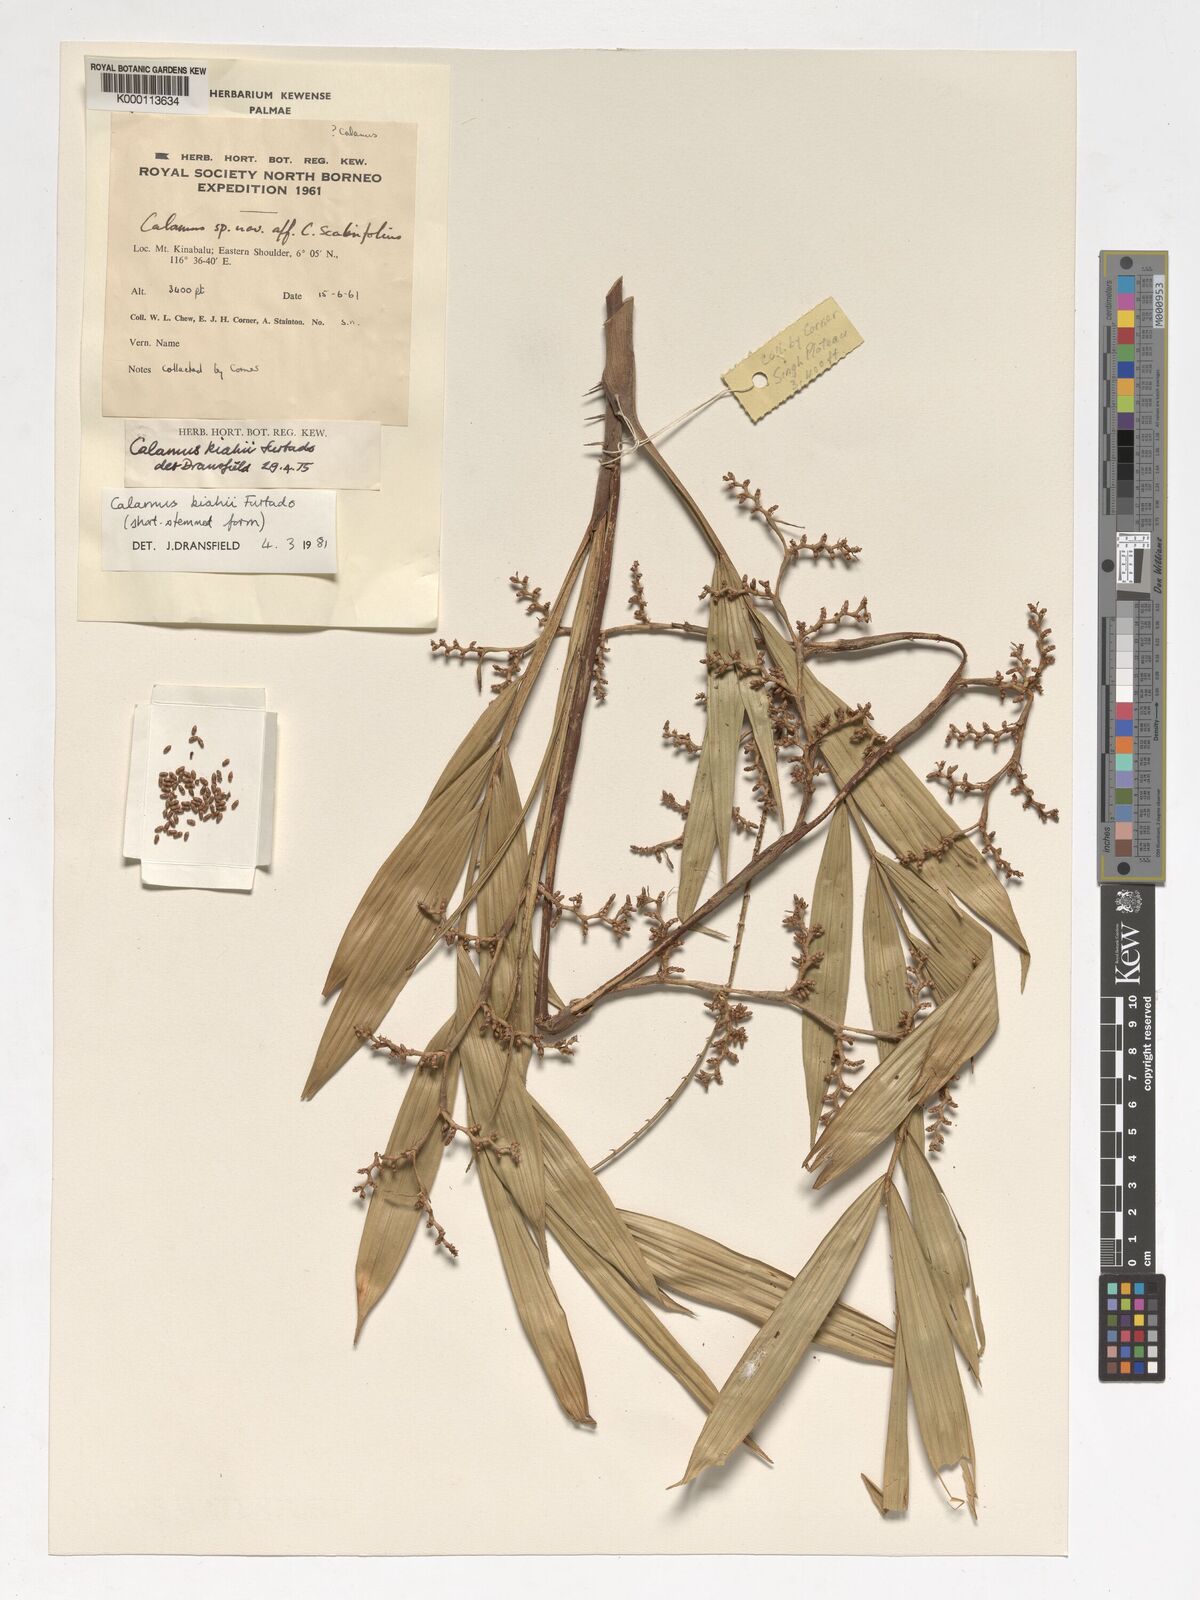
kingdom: Plantae
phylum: Tracheophyta
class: Liliopsida
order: Arecales
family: Arecaceae
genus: Calamus
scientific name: Calamus plicatus
